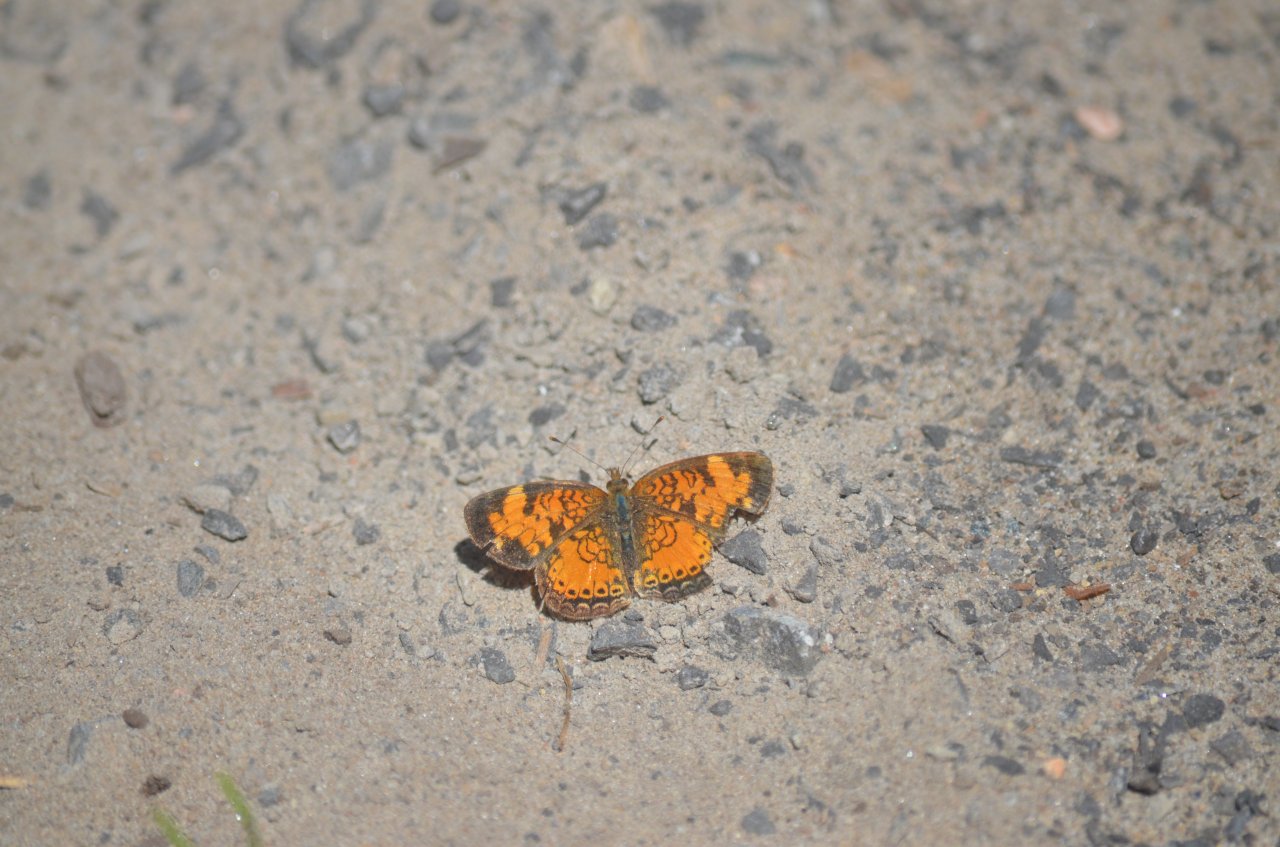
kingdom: Animalia
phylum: Arthropoda
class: Insecta
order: Lepidoptera
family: Nymphalidae
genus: Phyciodes
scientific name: Phyciodes tharos
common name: Northern Crescent
